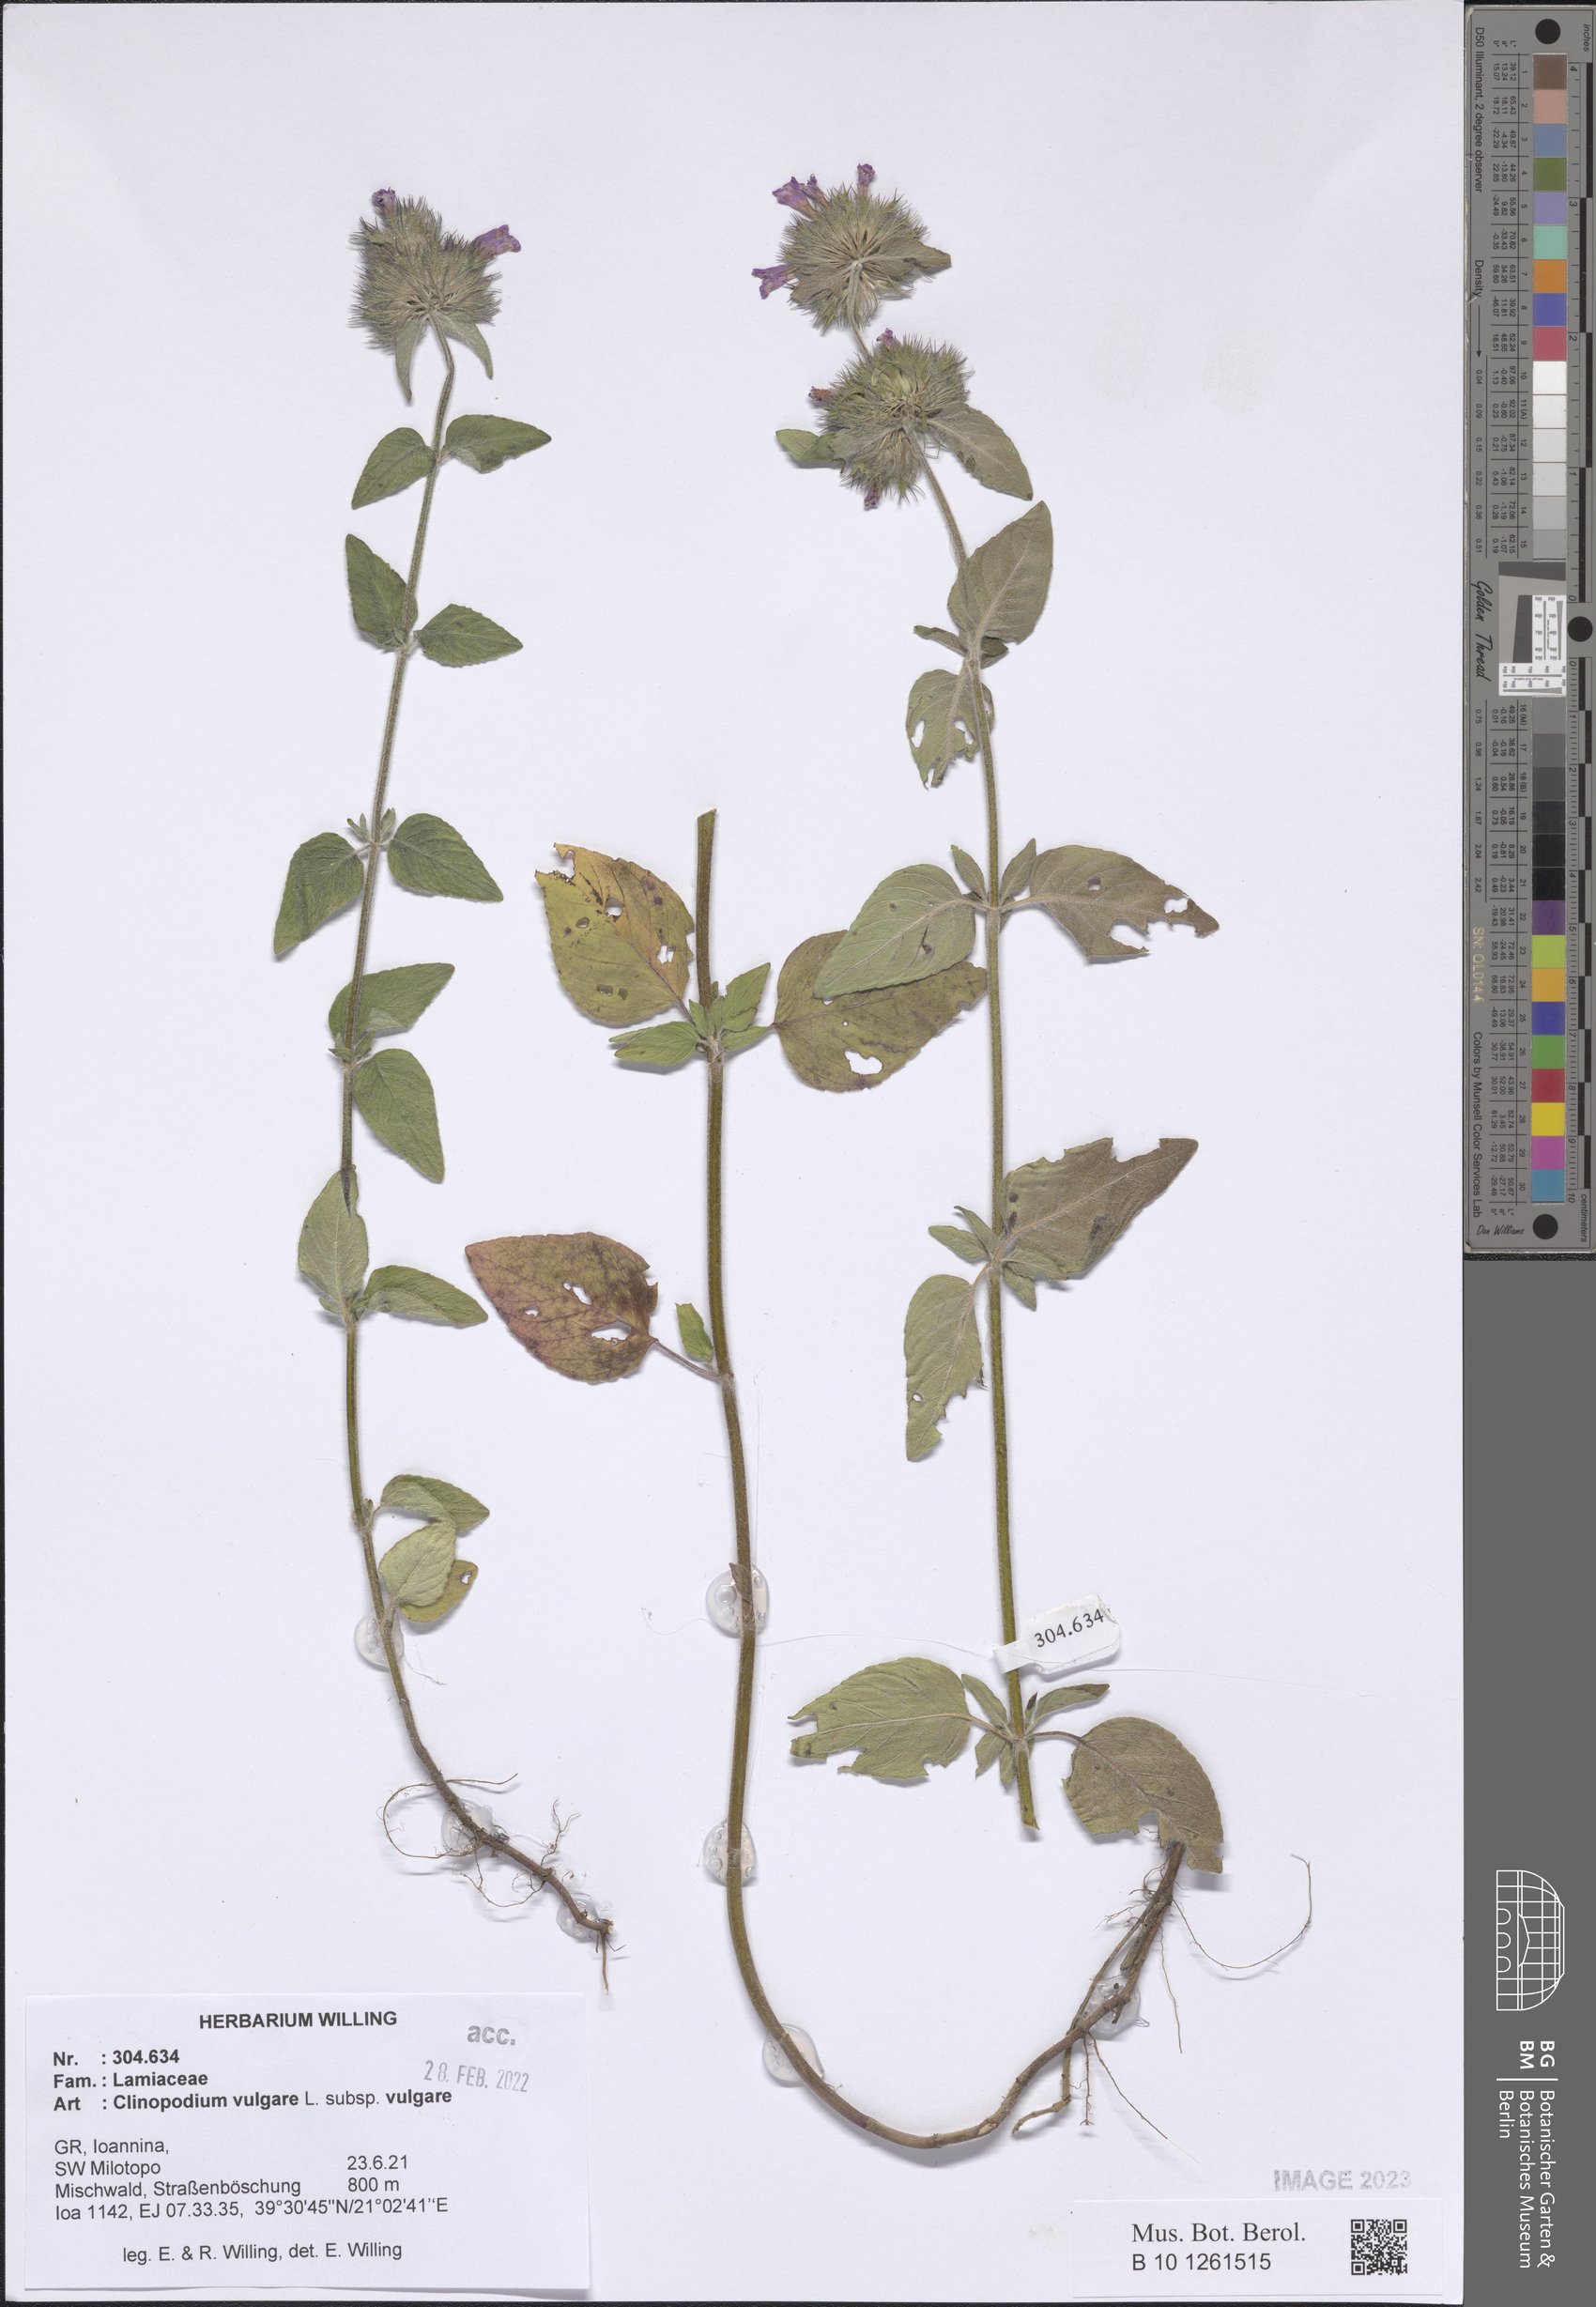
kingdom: Plantae
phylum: Tracheophyta
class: Magnoliopsida
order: Lamiales
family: Lamiaceae
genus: Clinopodium
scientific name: Clinopodium vulgare
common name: Wild basil
